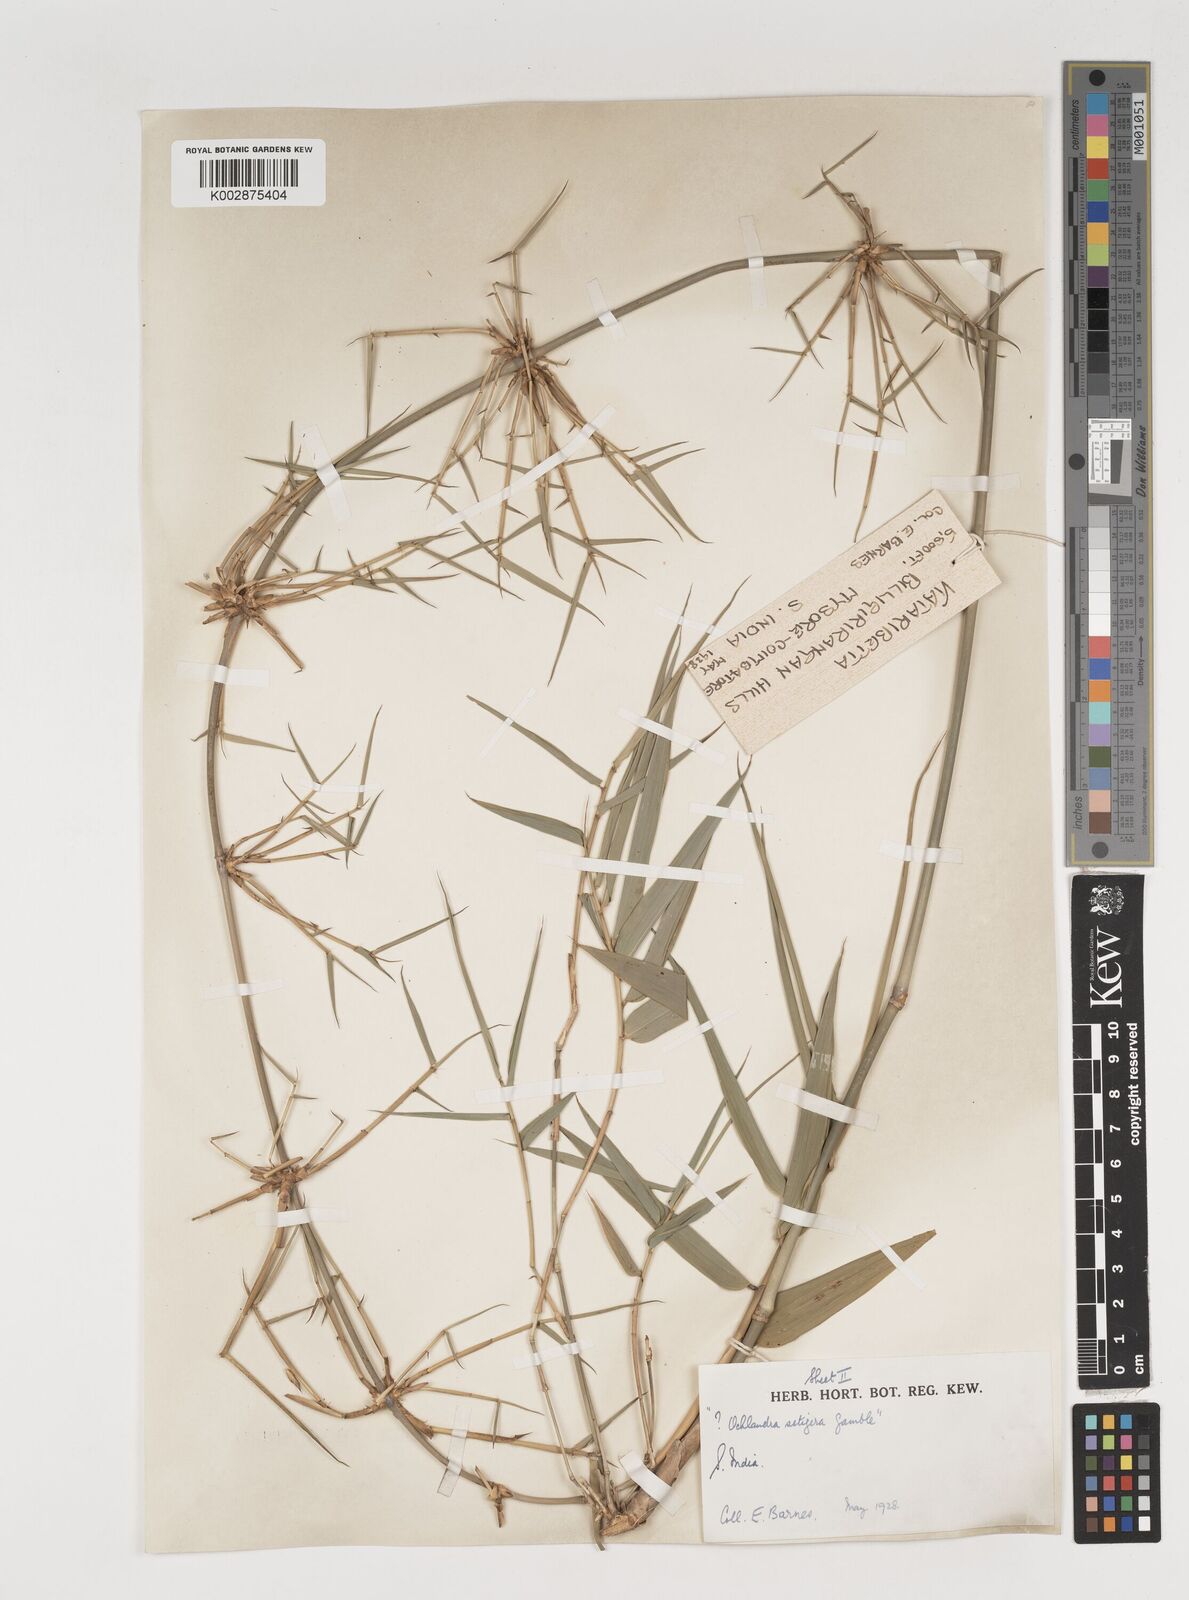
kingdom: Plantae
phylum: Tracheophyta
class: Liliopsida
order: Poales
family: Poaceae
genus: Dendrocalamus
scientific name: Dendrocalamus
